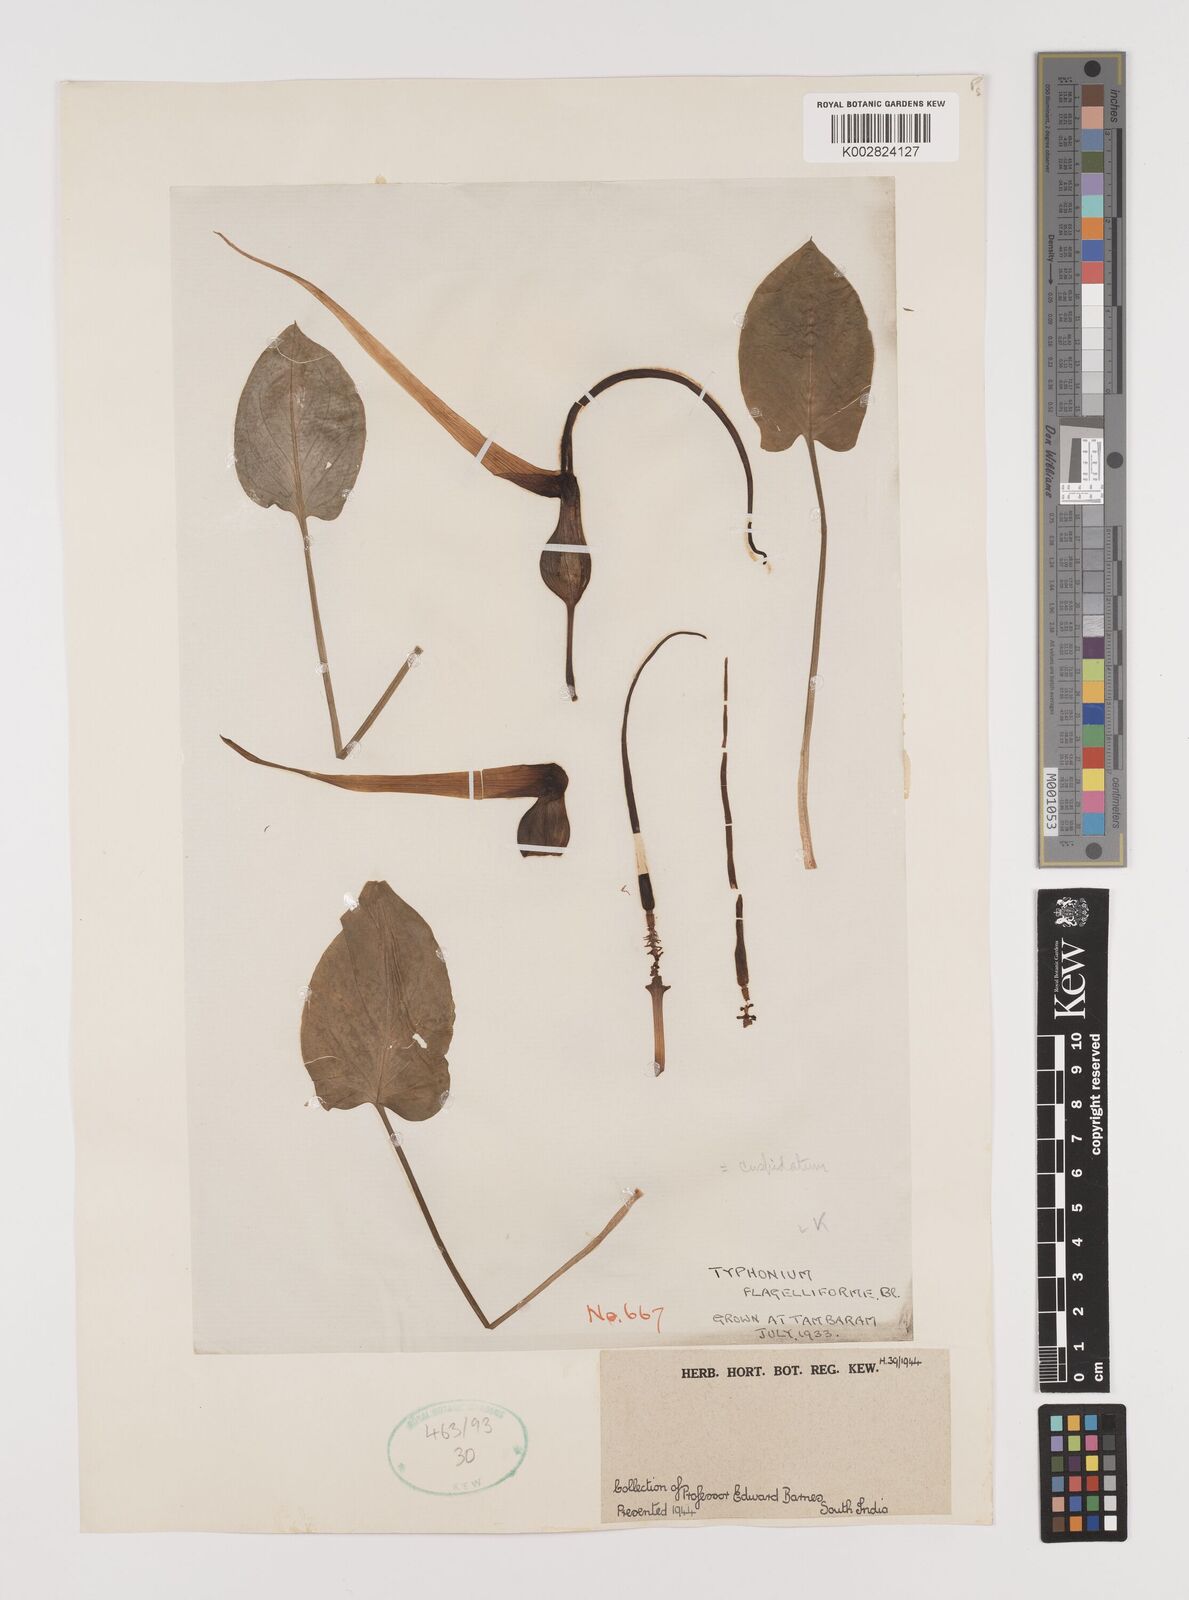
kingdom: Plantae
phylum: Tracheophyta
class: Liliopsida
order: Alismatales
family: Araceae
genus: Typhonium
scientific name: Typhonium flagelliforme
